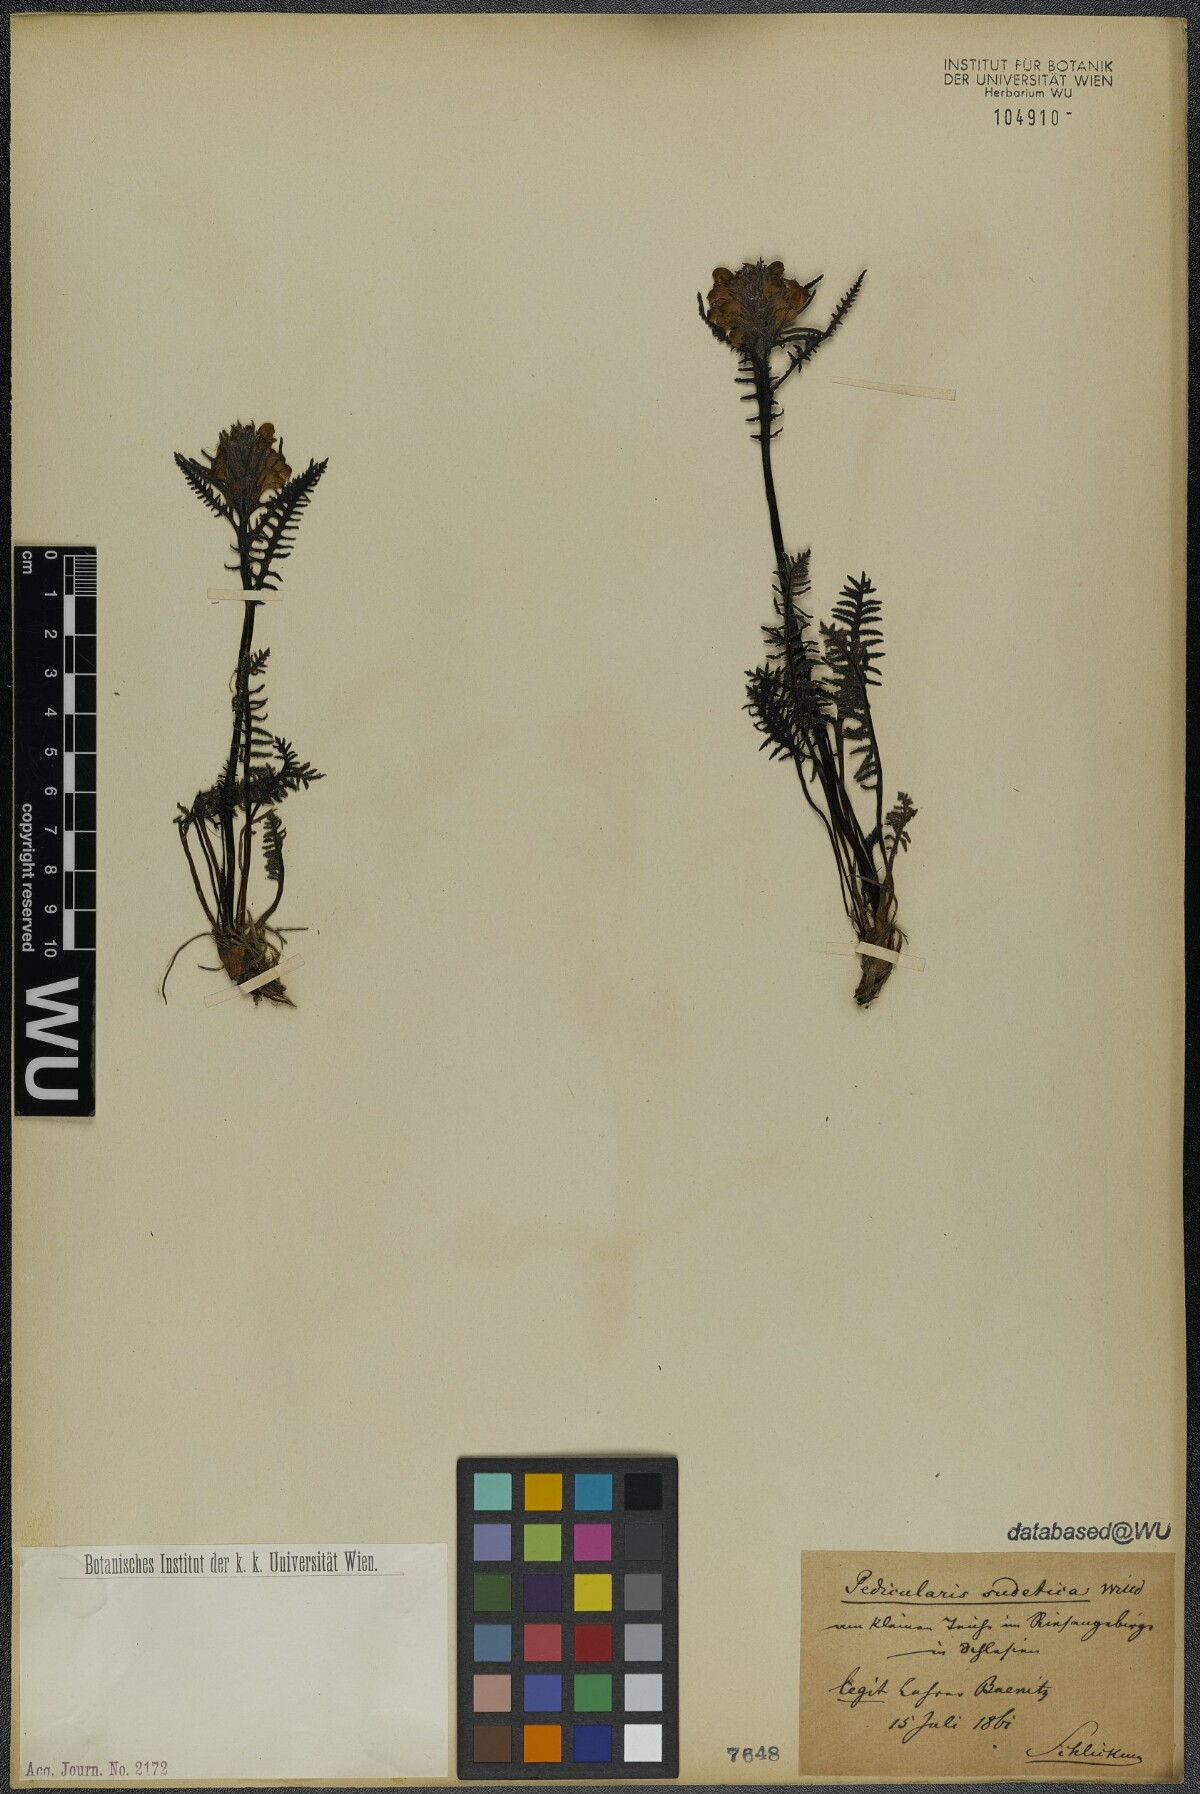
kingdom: Plantae
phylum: Tracheophyta
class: Magnoliopsida
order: Lamiales
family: Orobanchaceae
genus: Pedicularis
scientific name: Pedicularis sudetica
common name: Sudeten lousewort
